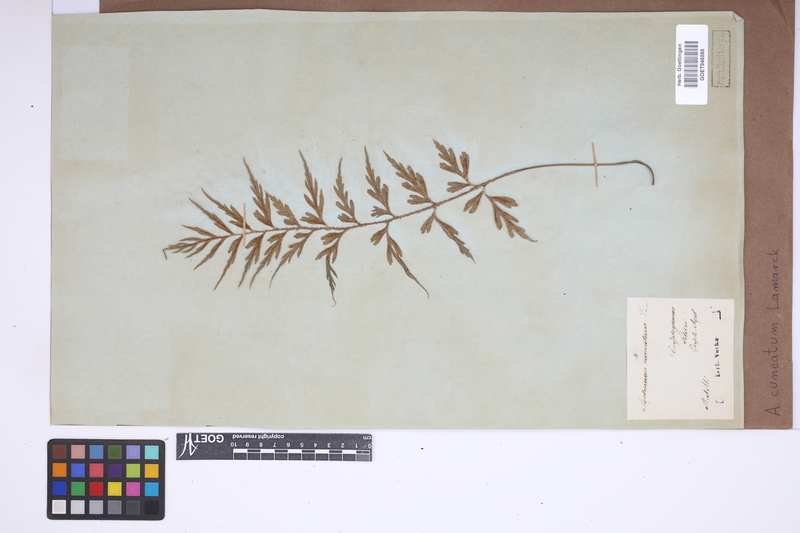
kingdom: Plantae
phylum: Tracheophyta
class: Polypodiopsida
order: Polypodiales
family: Aspleniaceae
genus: Asplenium
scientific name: Asplenium cuneatum
